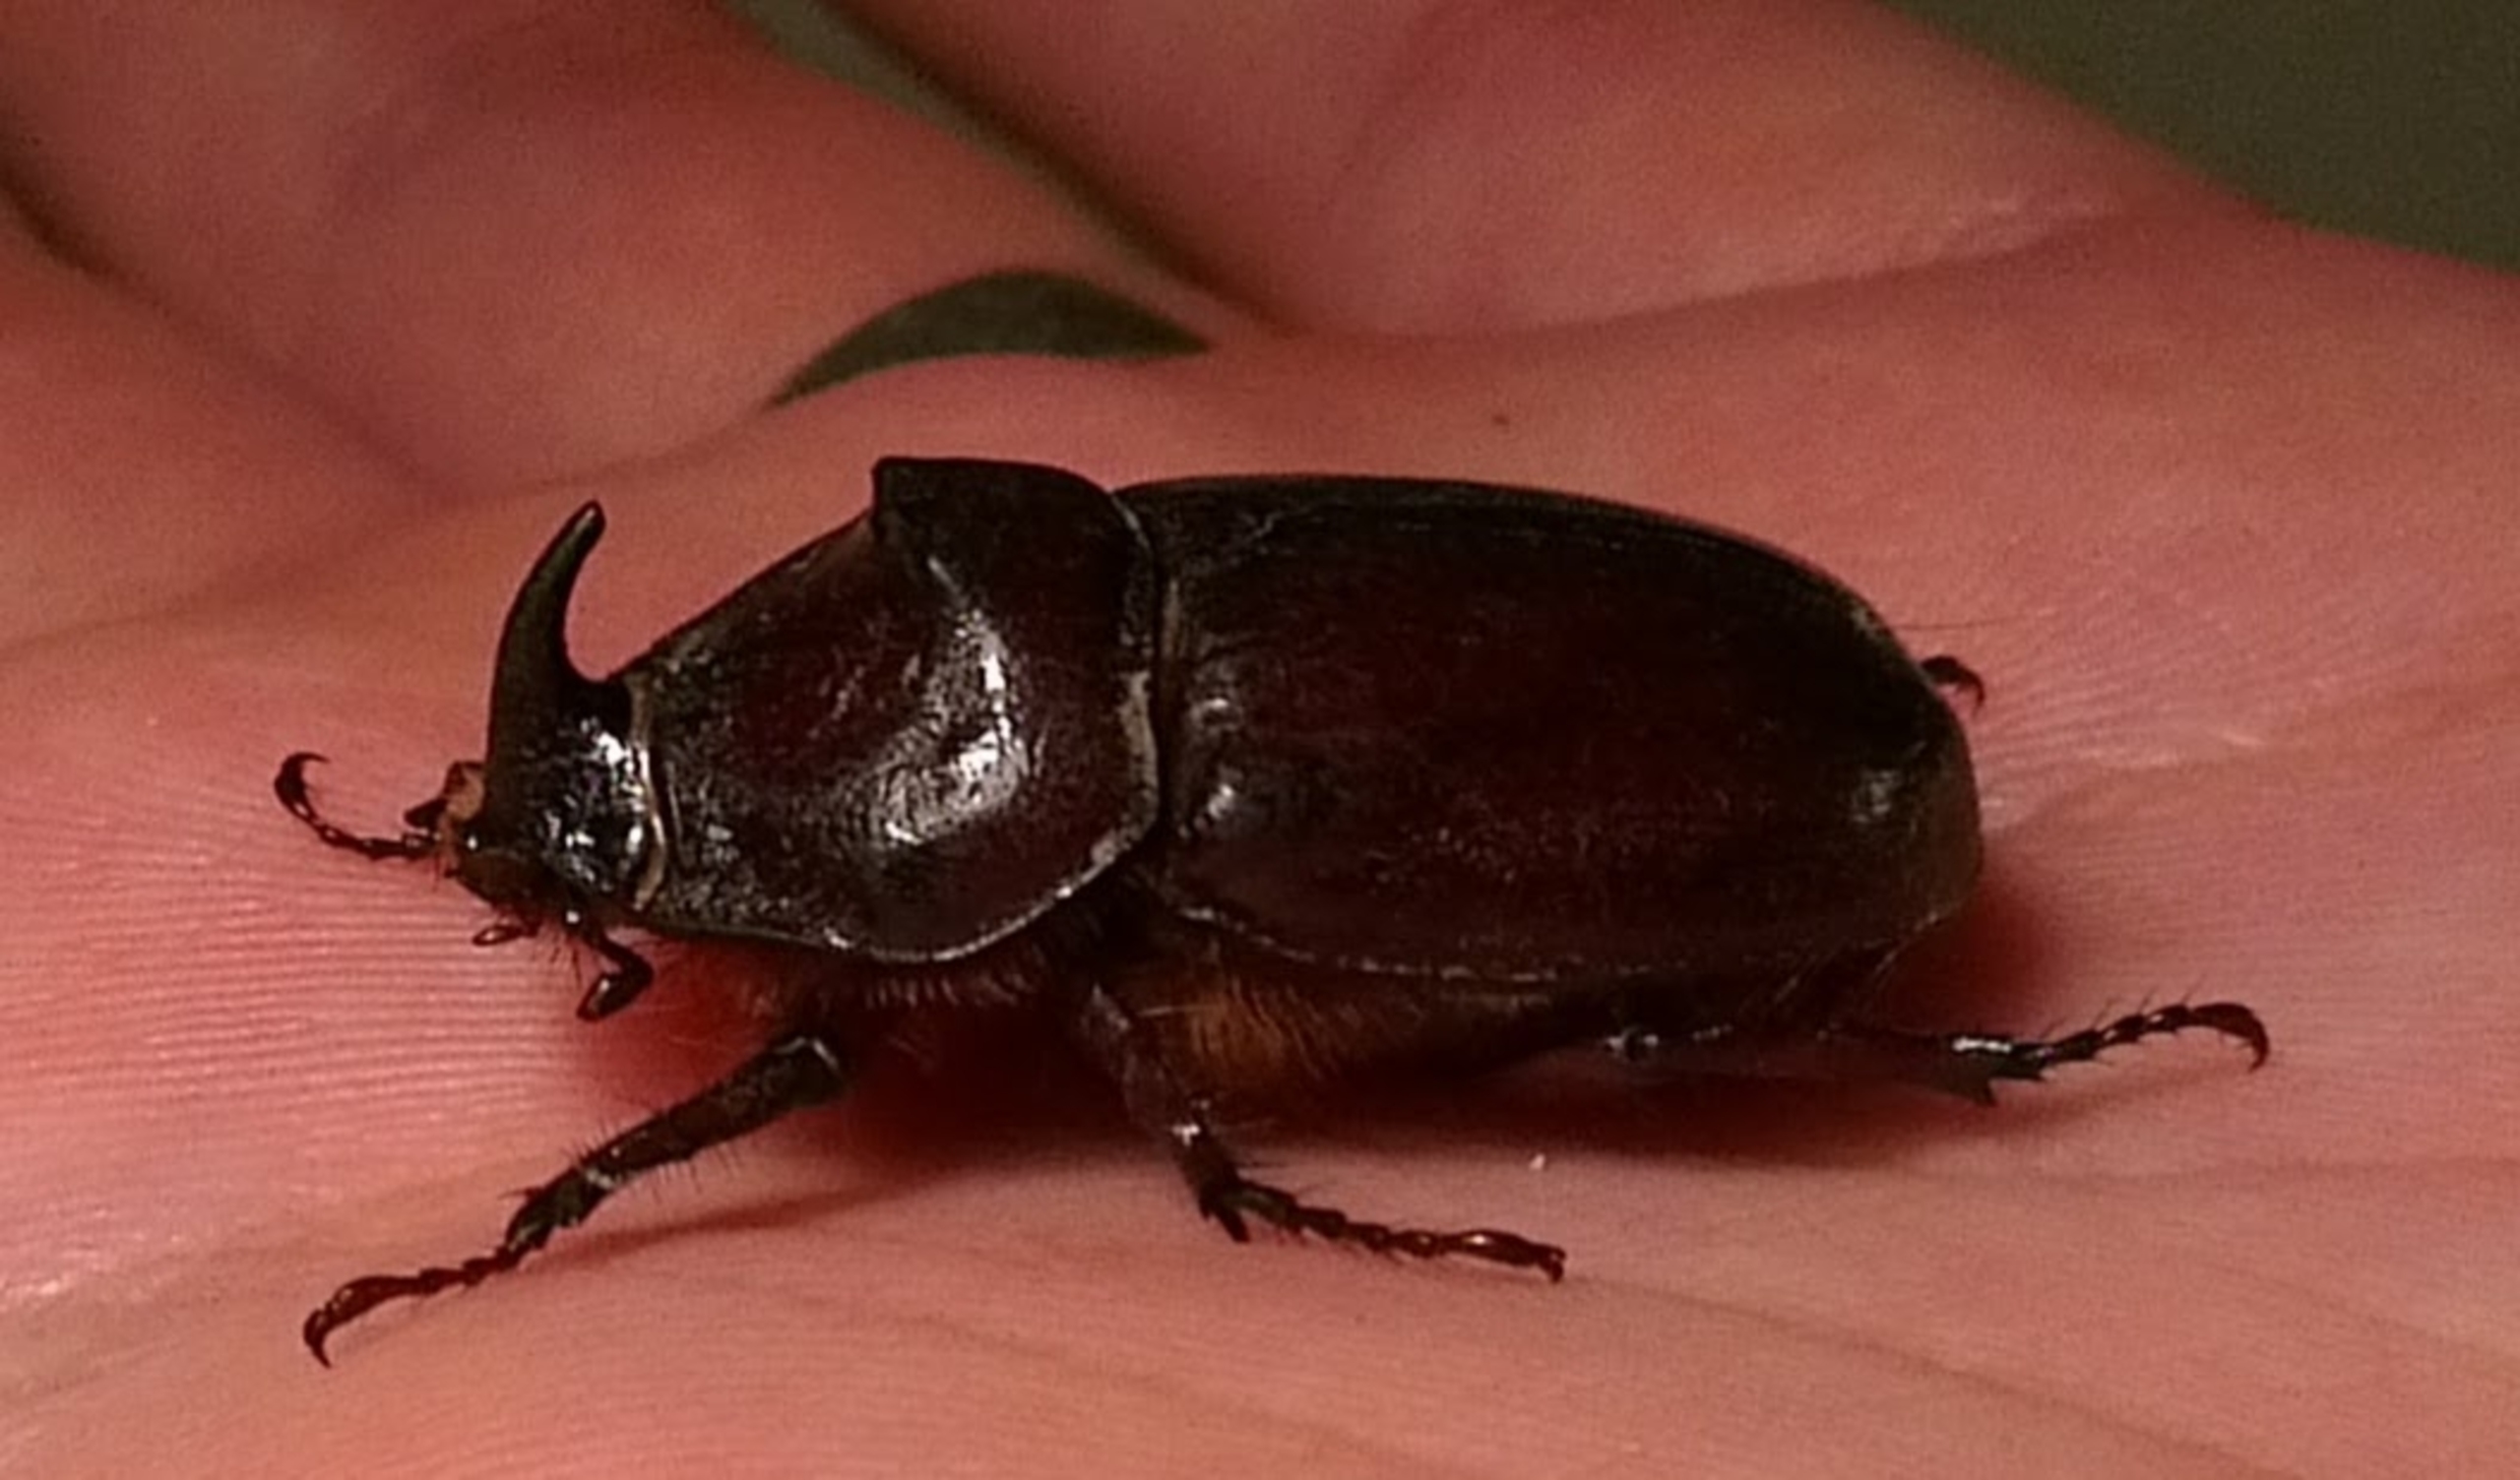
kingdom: Animalia
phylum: Arthropoda
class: Insecta
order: Coleoptera
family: Scarabaeidae
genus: Oryctes
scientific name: Oryctes nasicornis
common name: Næsehornsbille
